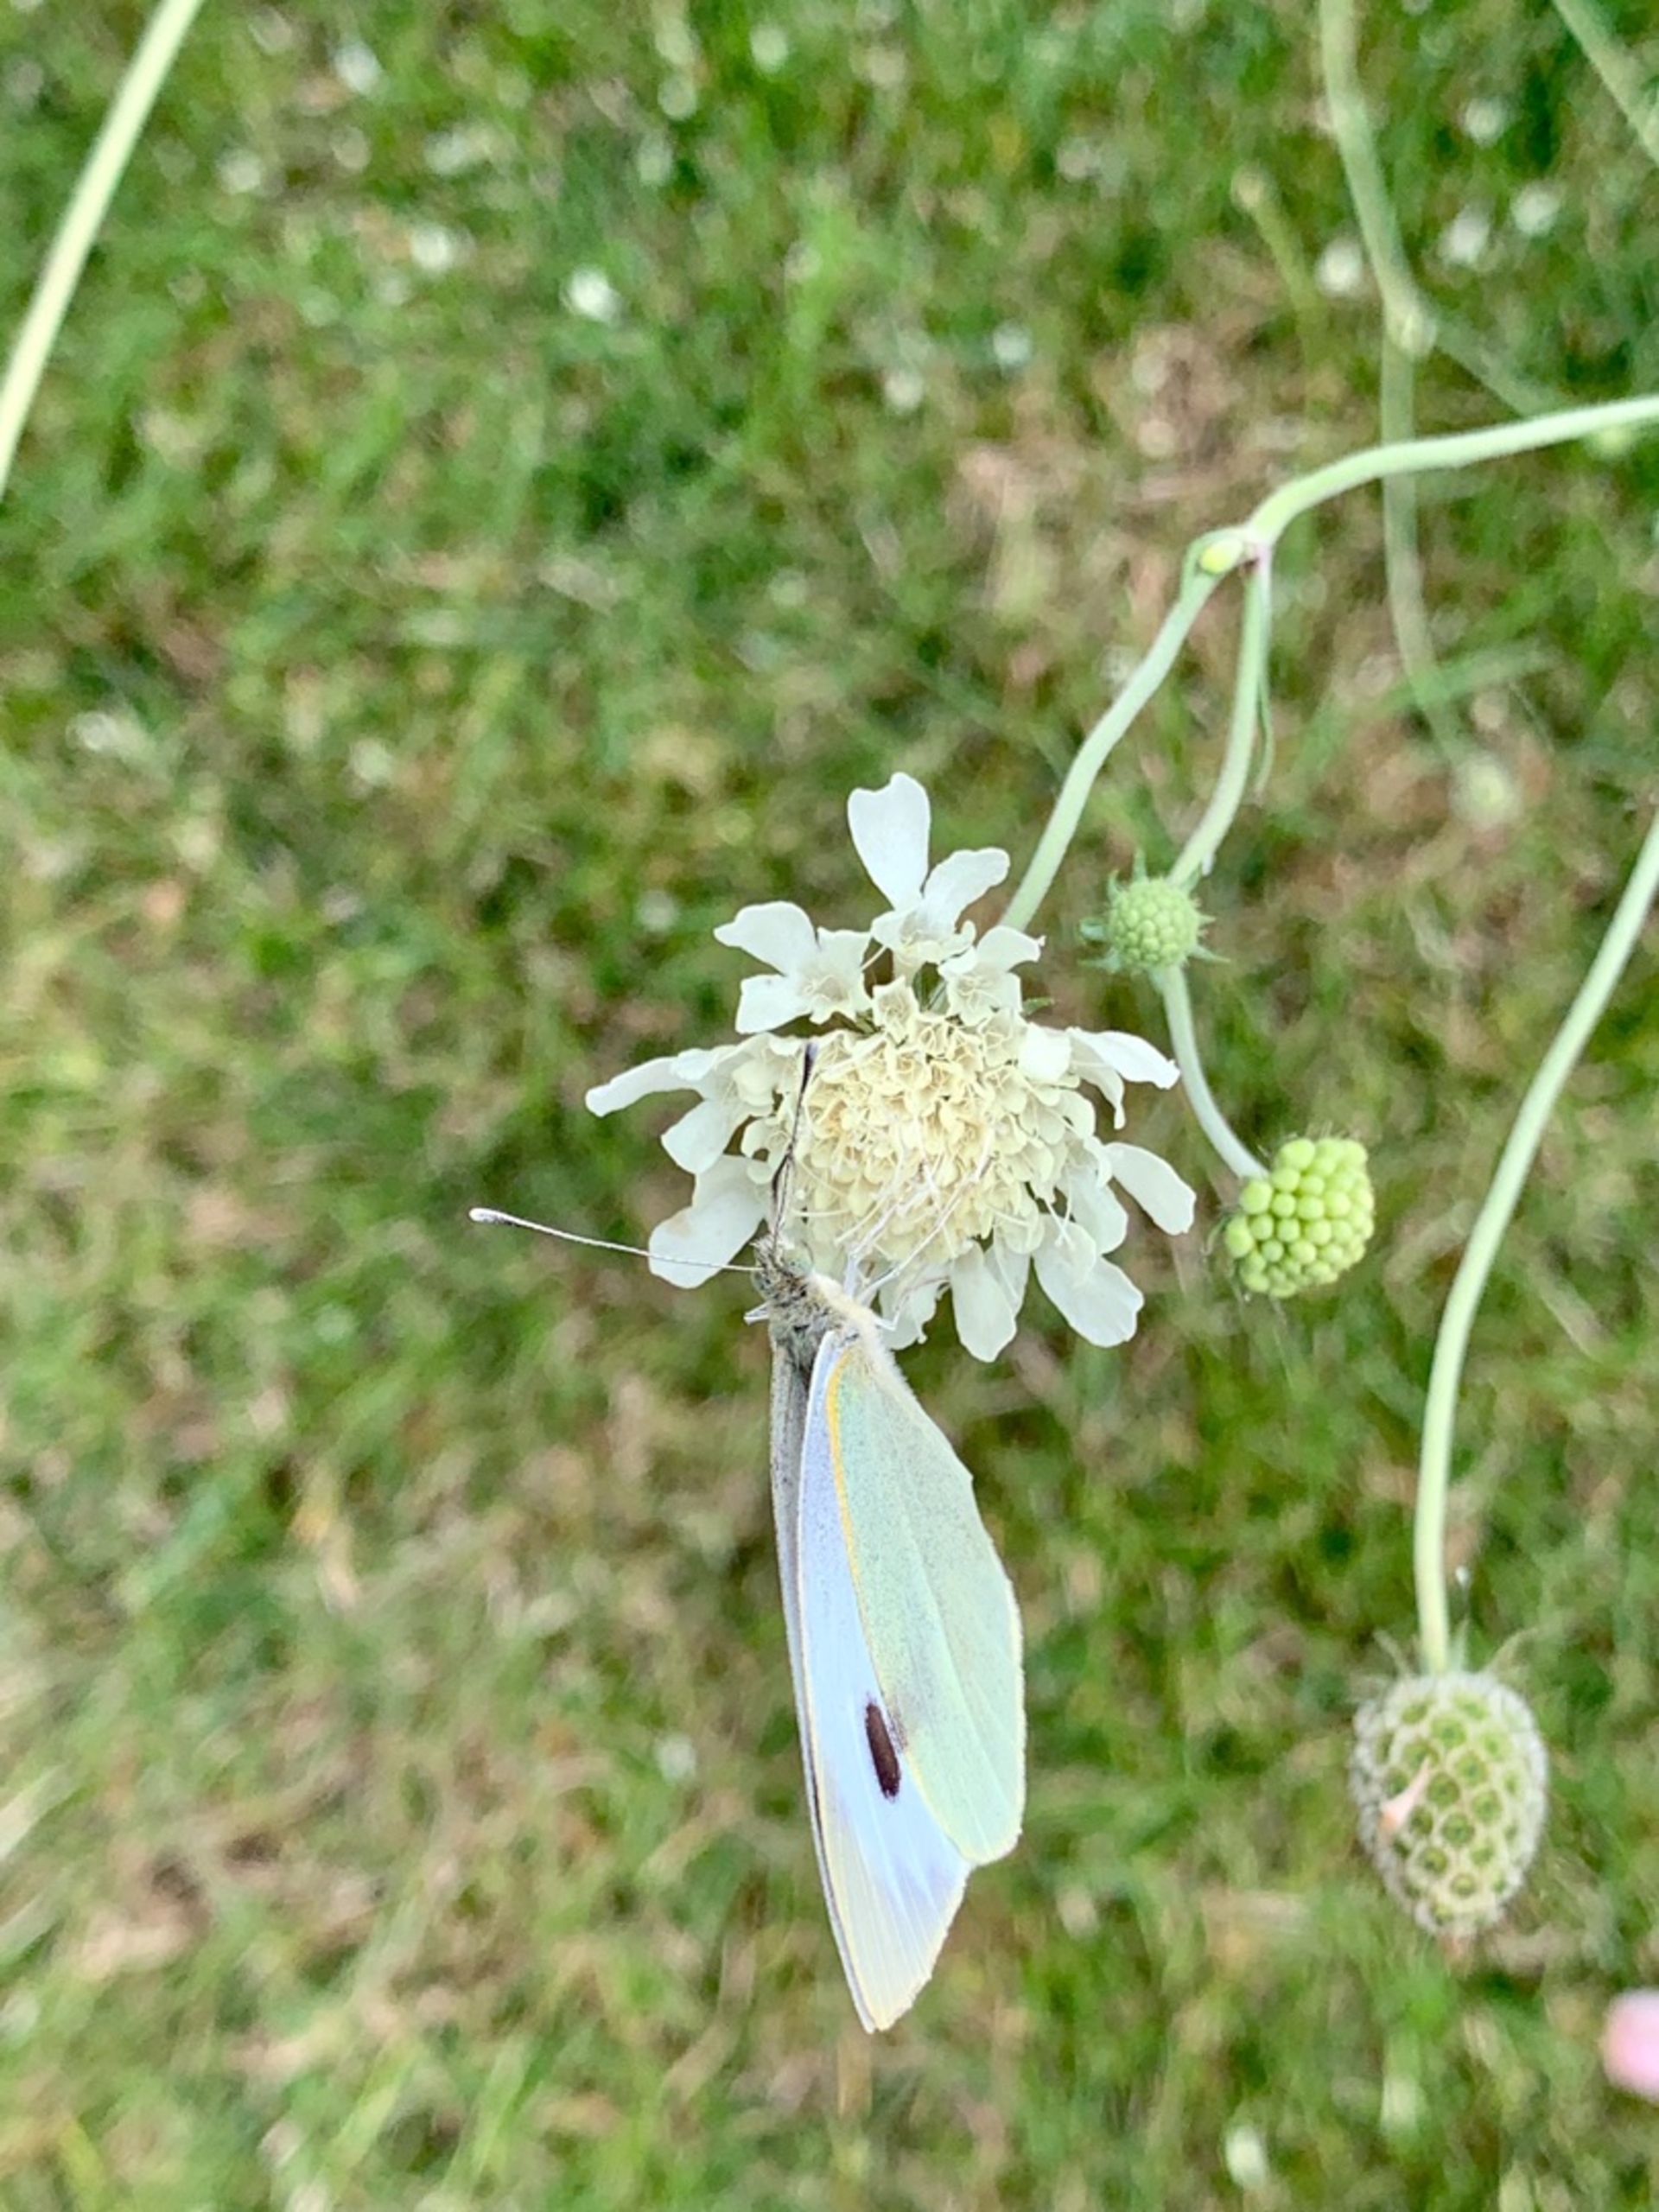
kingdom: Animalia
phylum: Arthropoda
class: Insecta
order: Lepidoptera
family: Pieridae
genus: Pieris
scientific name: Pieris brassicae
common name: Stor kålsommerfugl
